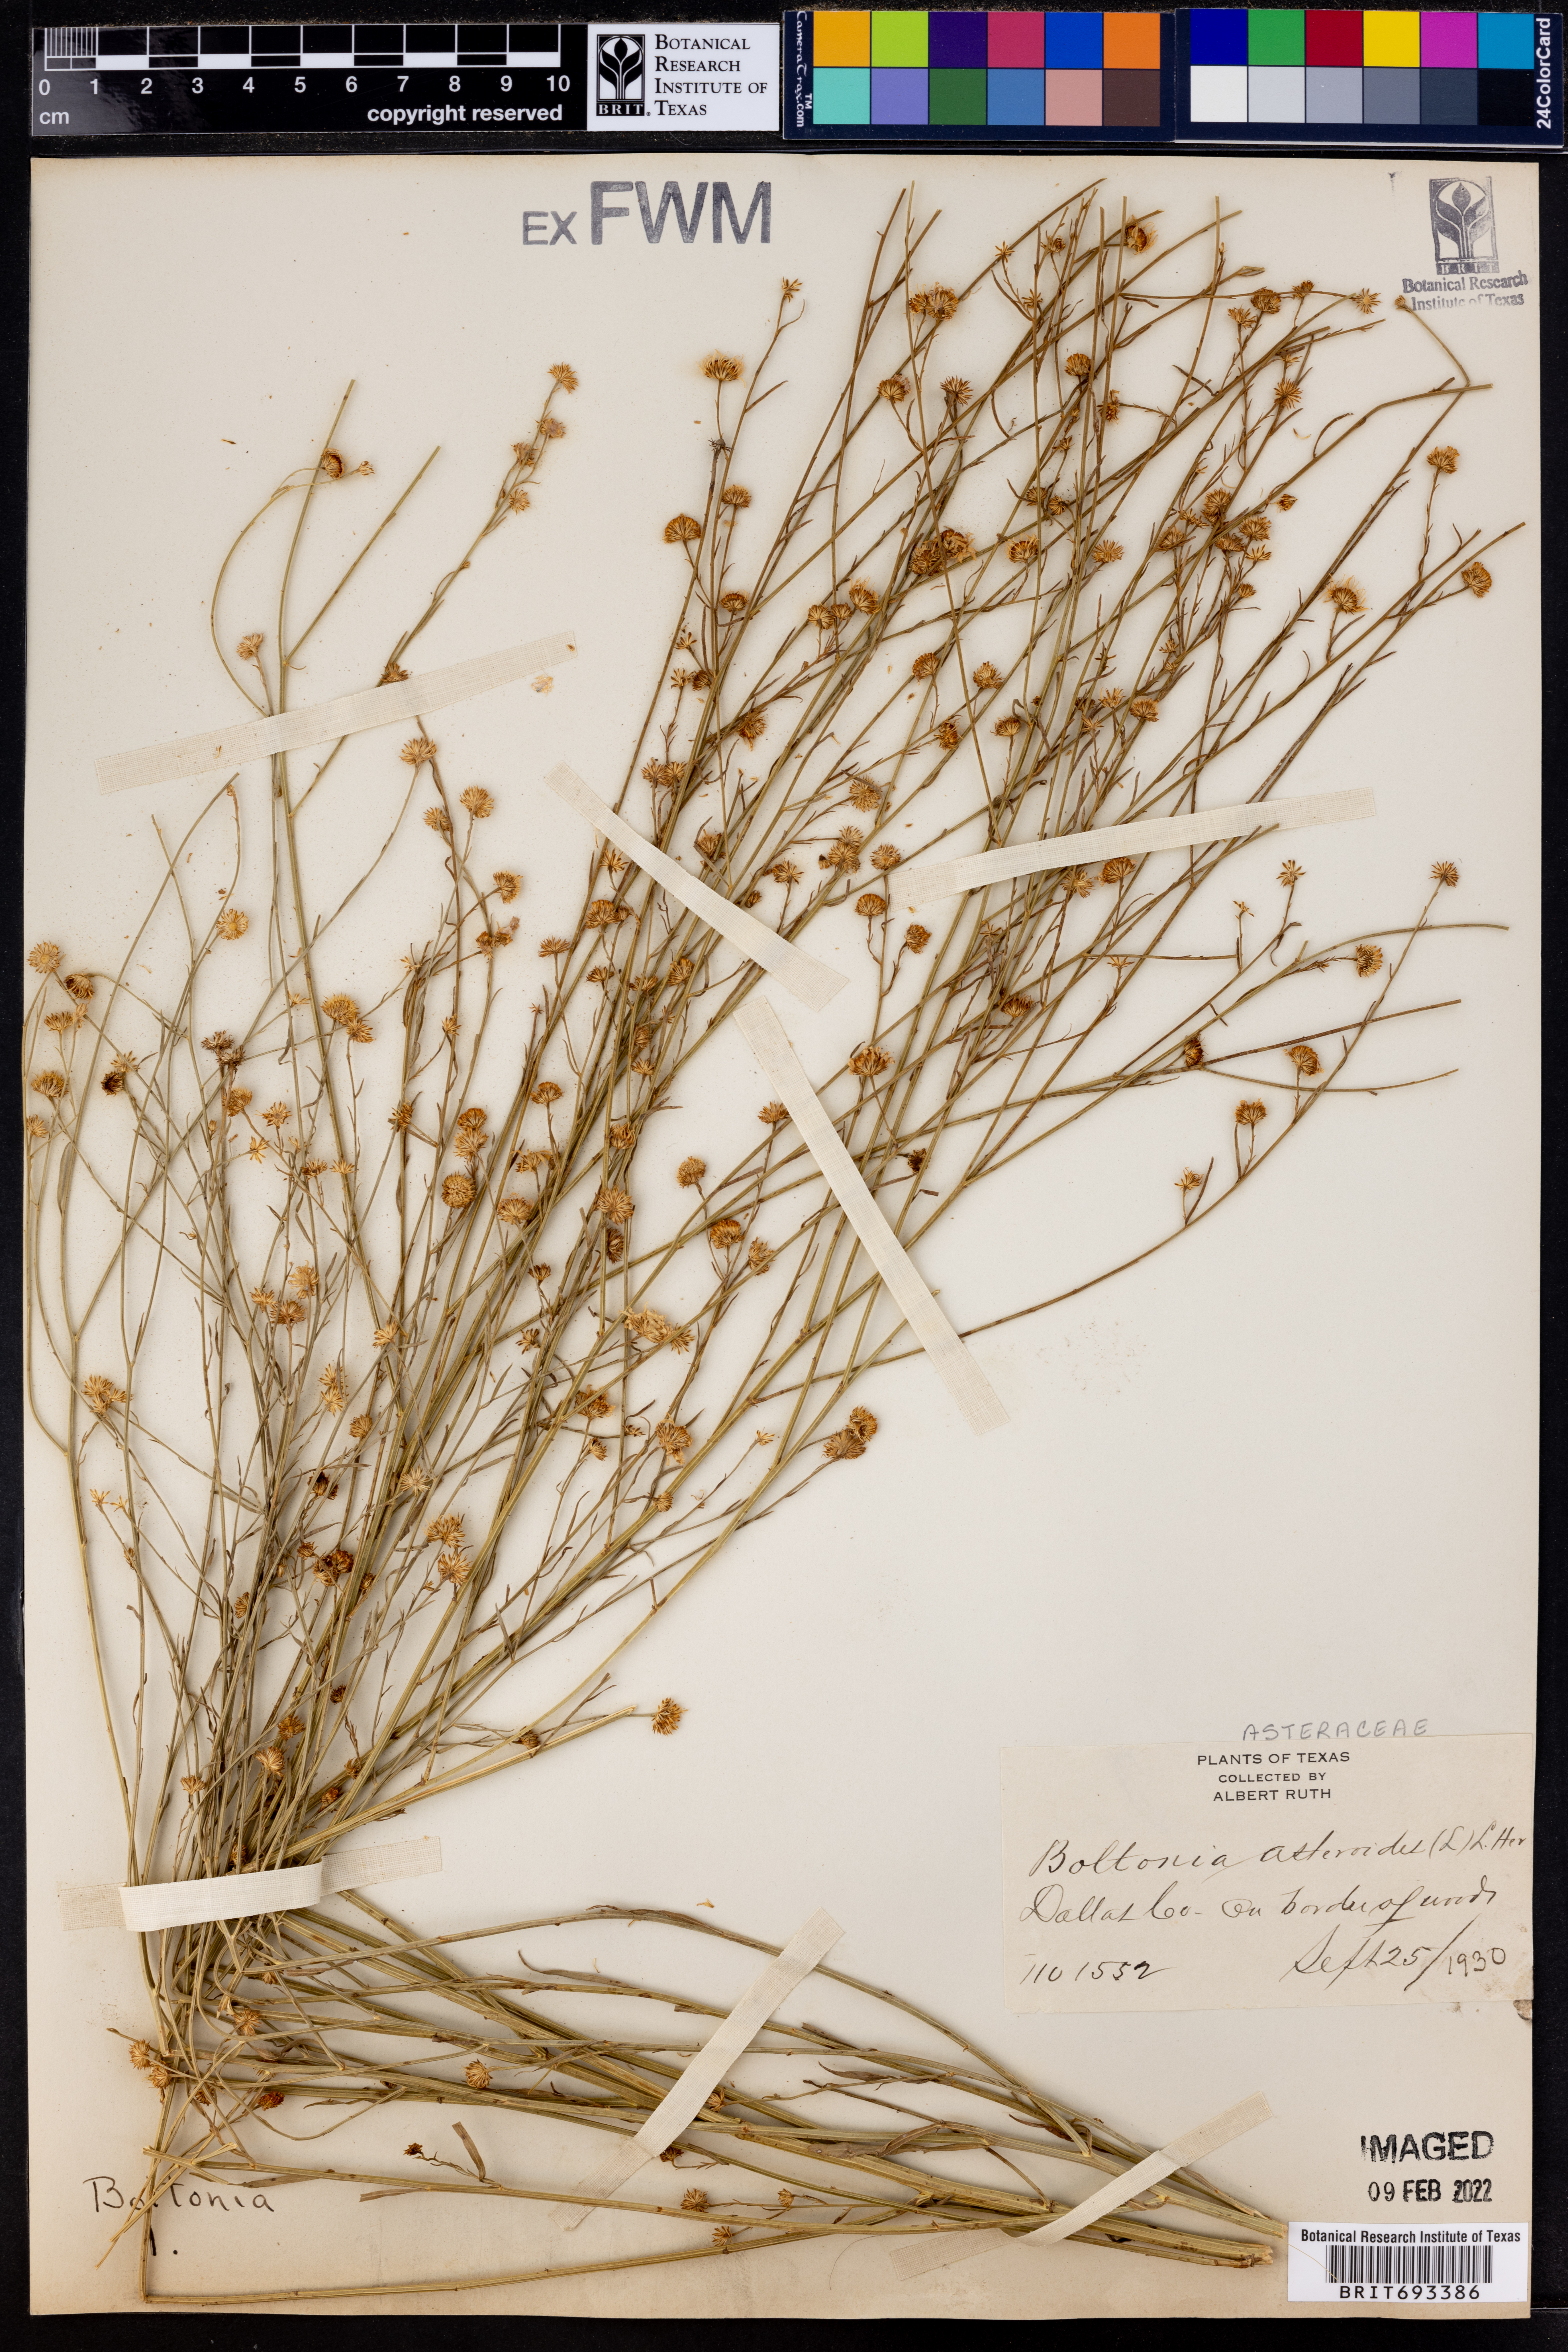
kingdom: Plantae
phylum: Tracheophyta
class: Magnoliopsida
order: Asterales
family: Asteraceae
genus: Boltonia
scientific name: Boltonia asteroides
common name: False chamomile
